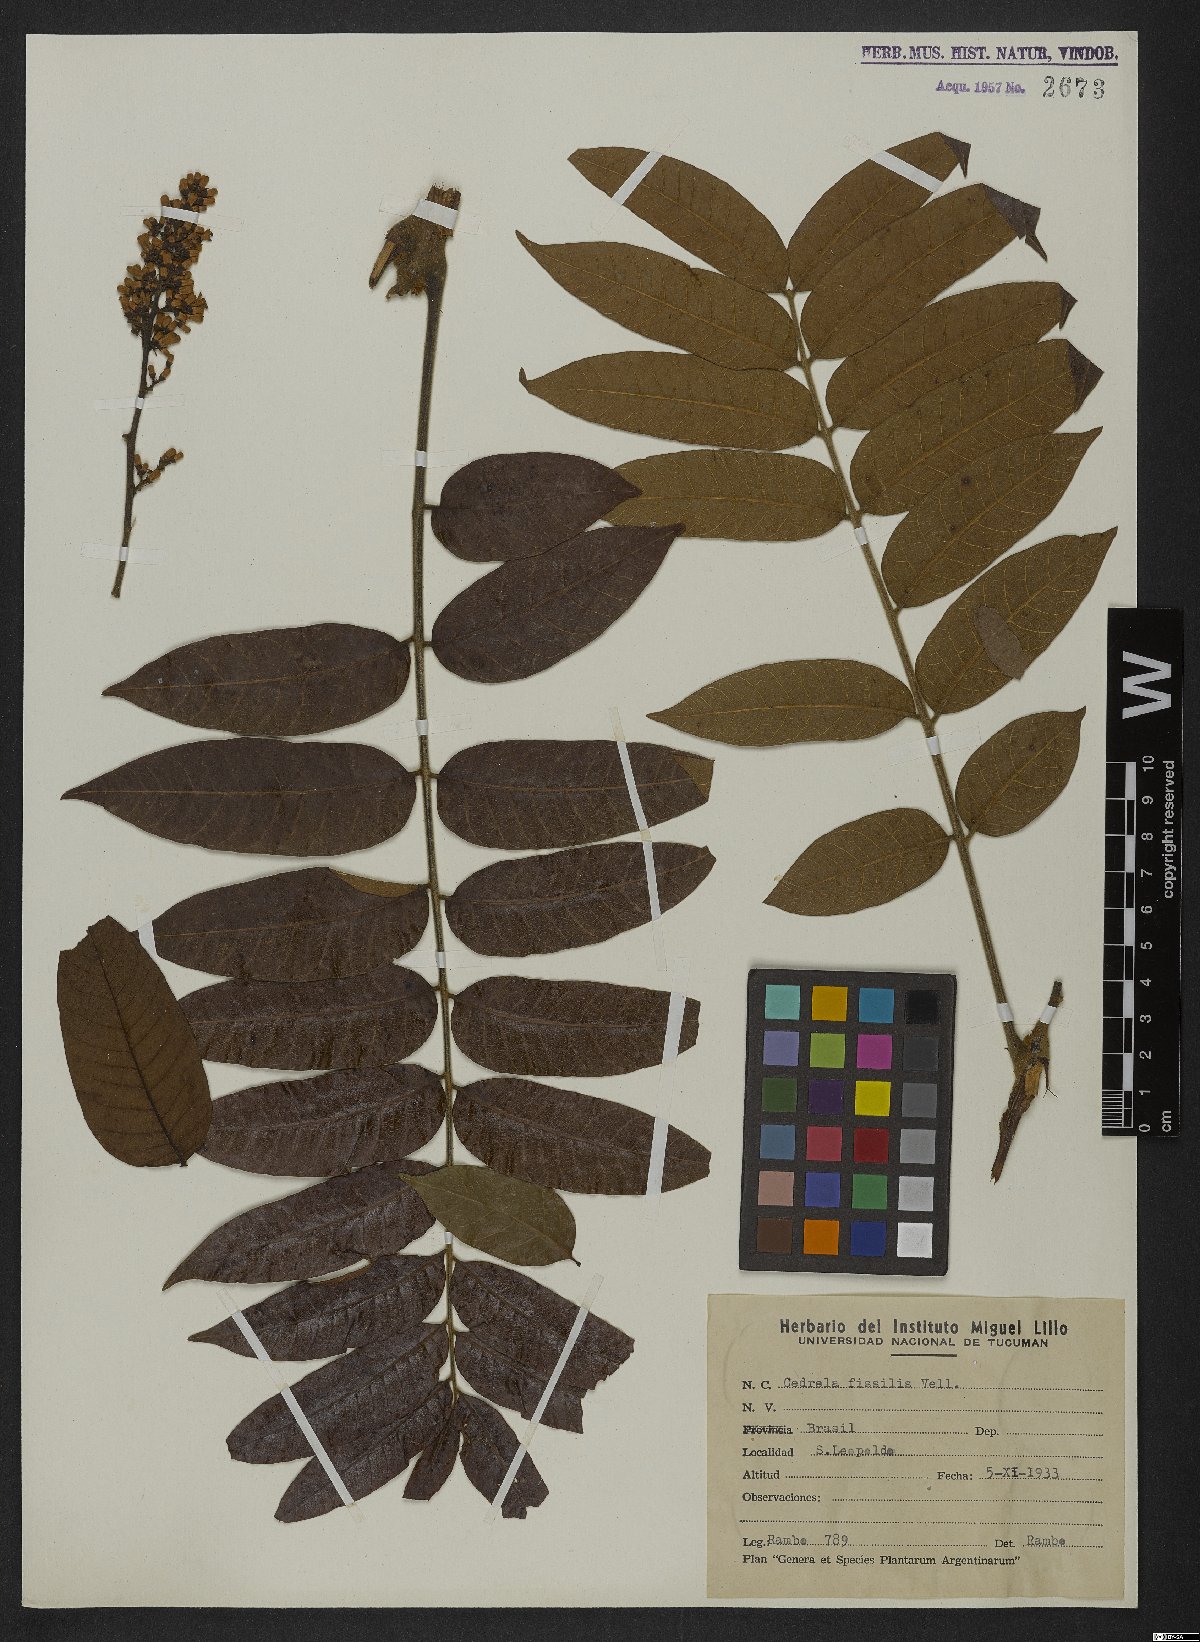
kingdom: Plantae
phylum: Tracheophyta
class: Magnoliopsida
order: Sapindales
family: Meliaceae
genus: Cedrela
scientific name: Cedrela fissilis
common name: Argentine cedar
